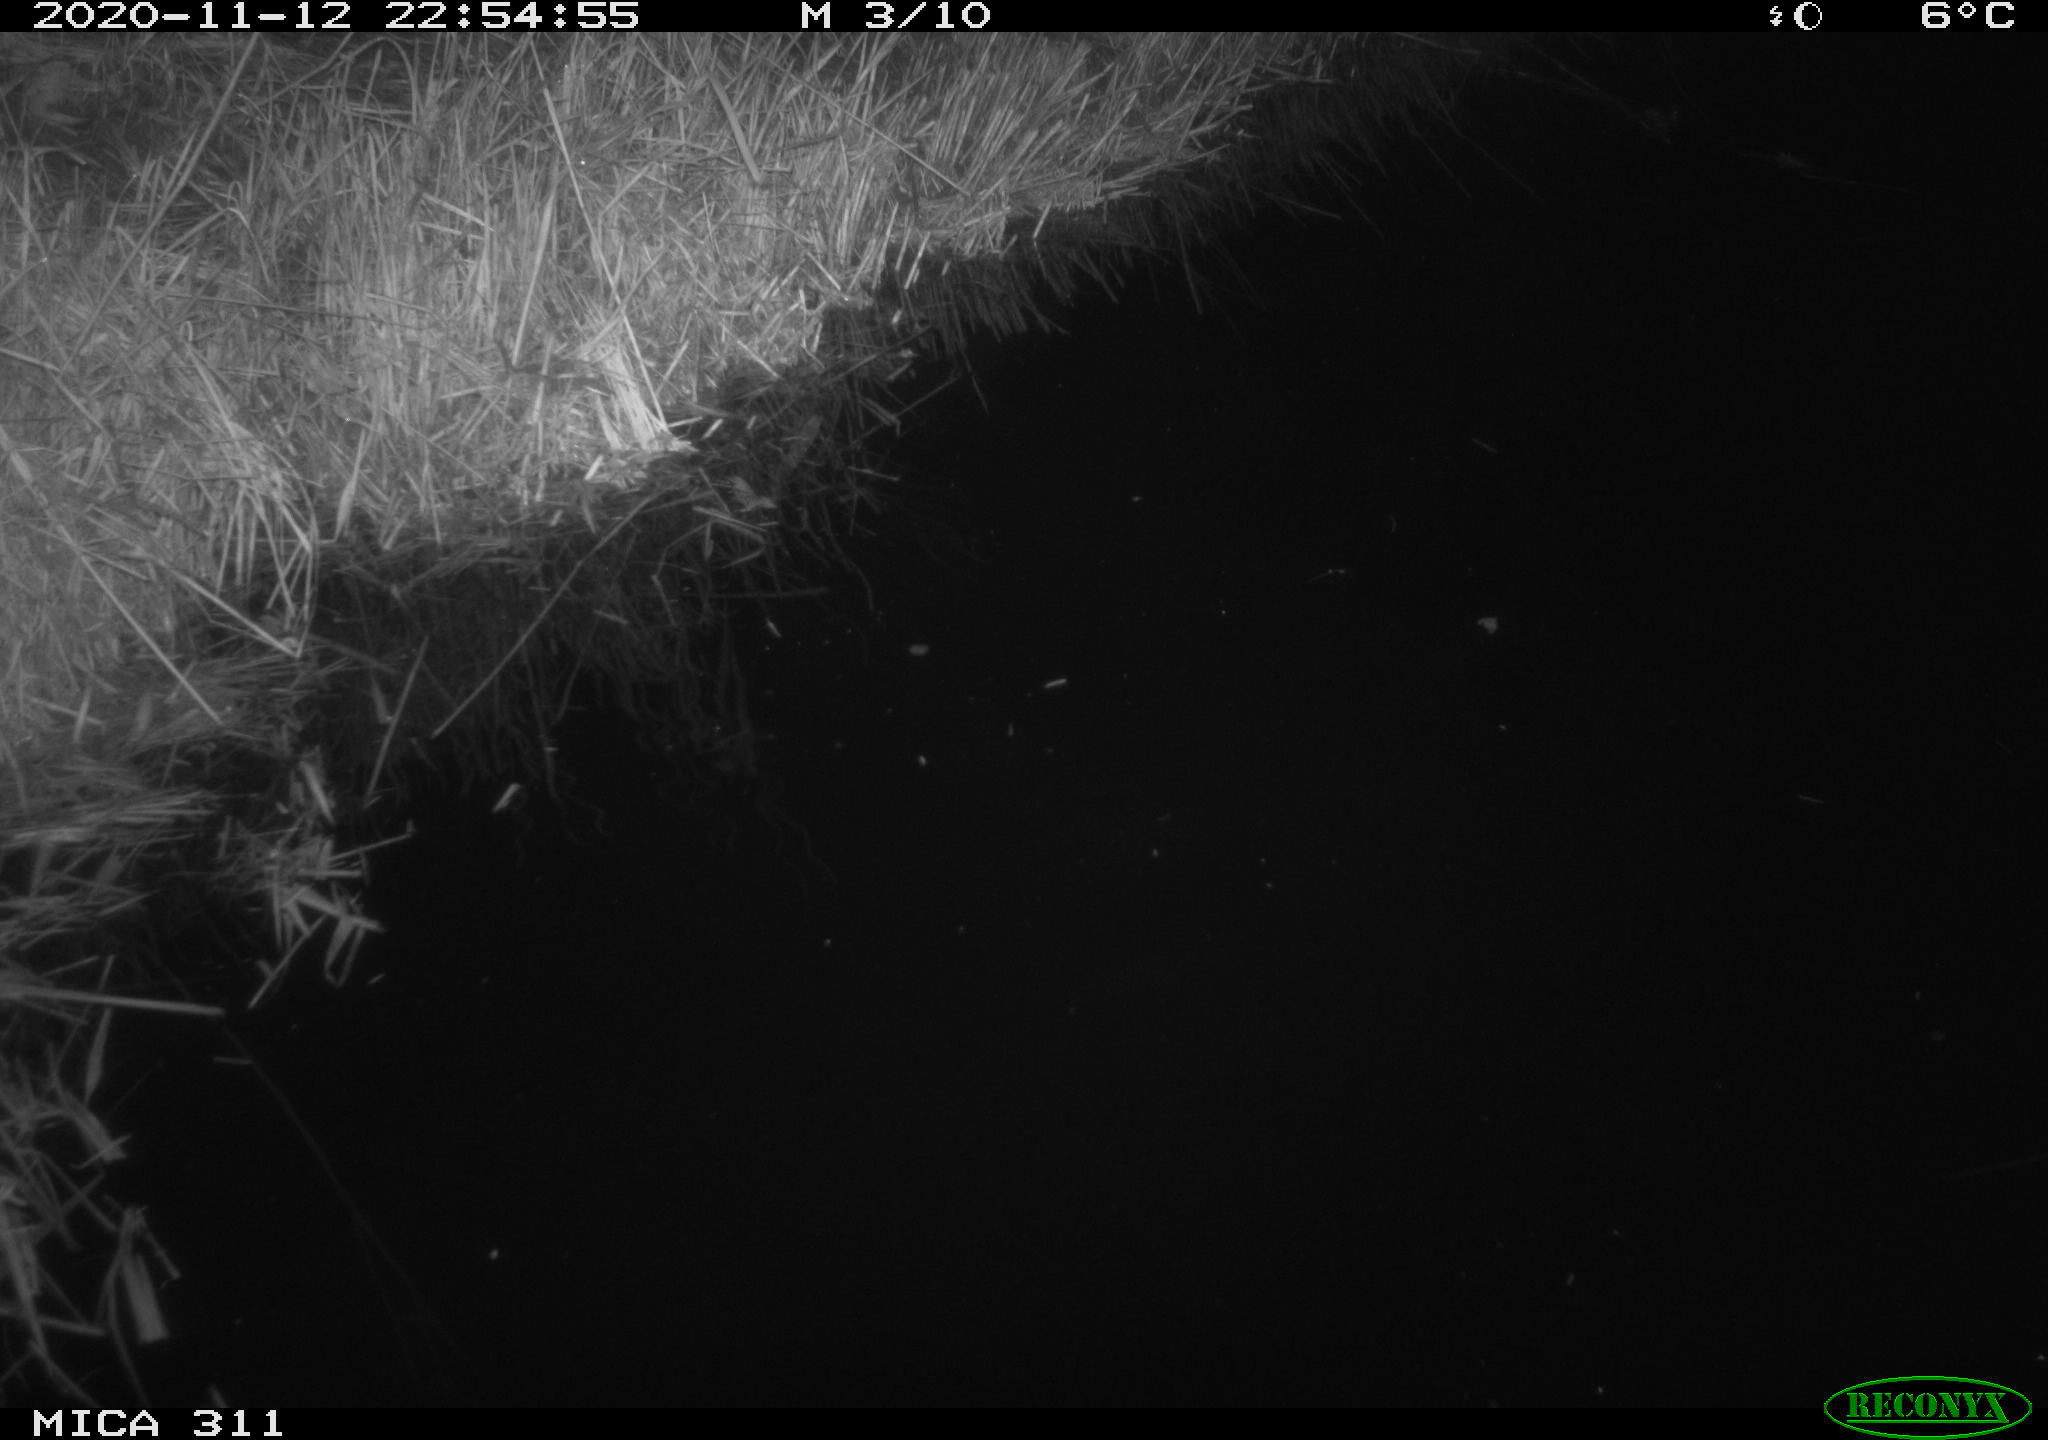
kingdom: Animalia
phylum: Chordata
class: Mammalia
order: Rodentia
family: Muridae
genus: Rattus
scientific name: Rattus norvegicus
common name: Brown rat
